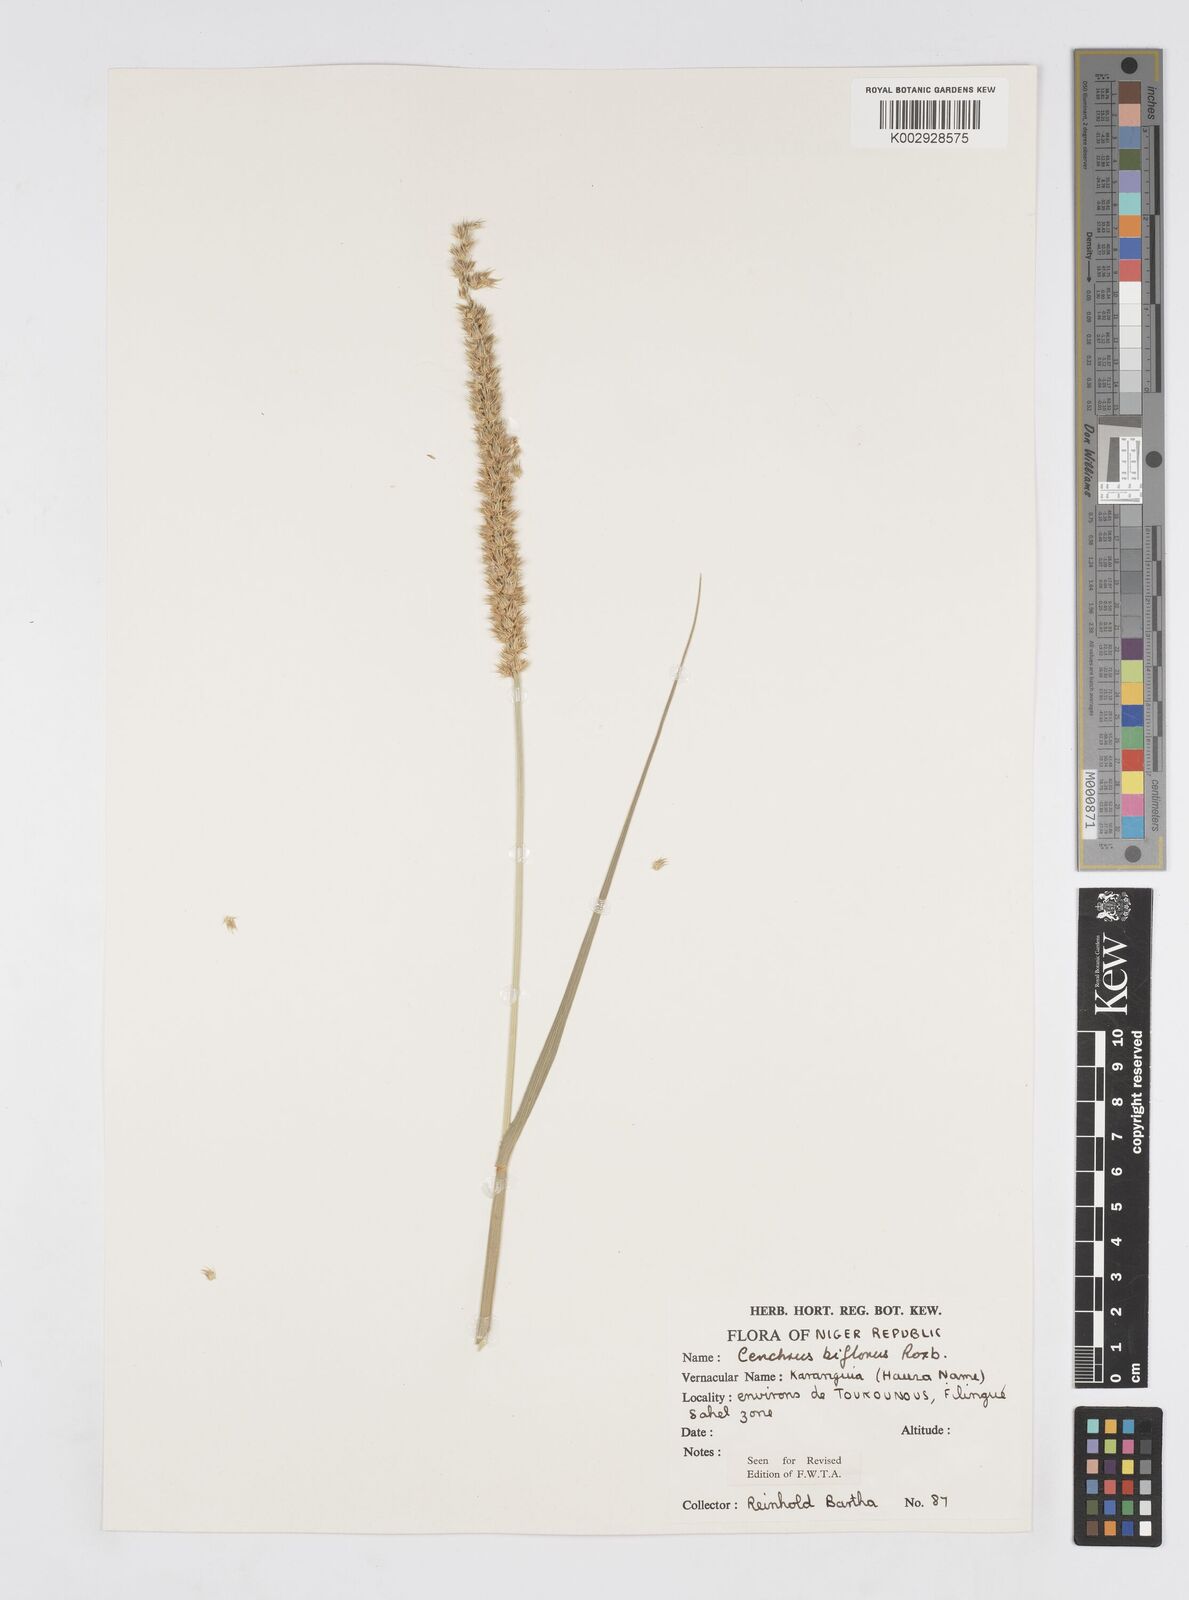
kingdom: Plantae
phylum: Tracheophyta
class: Liliopsida
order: Poales
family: Poaceae
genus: Cenchrus
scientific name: Cenchrus biflorus
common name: Indian sandbur
